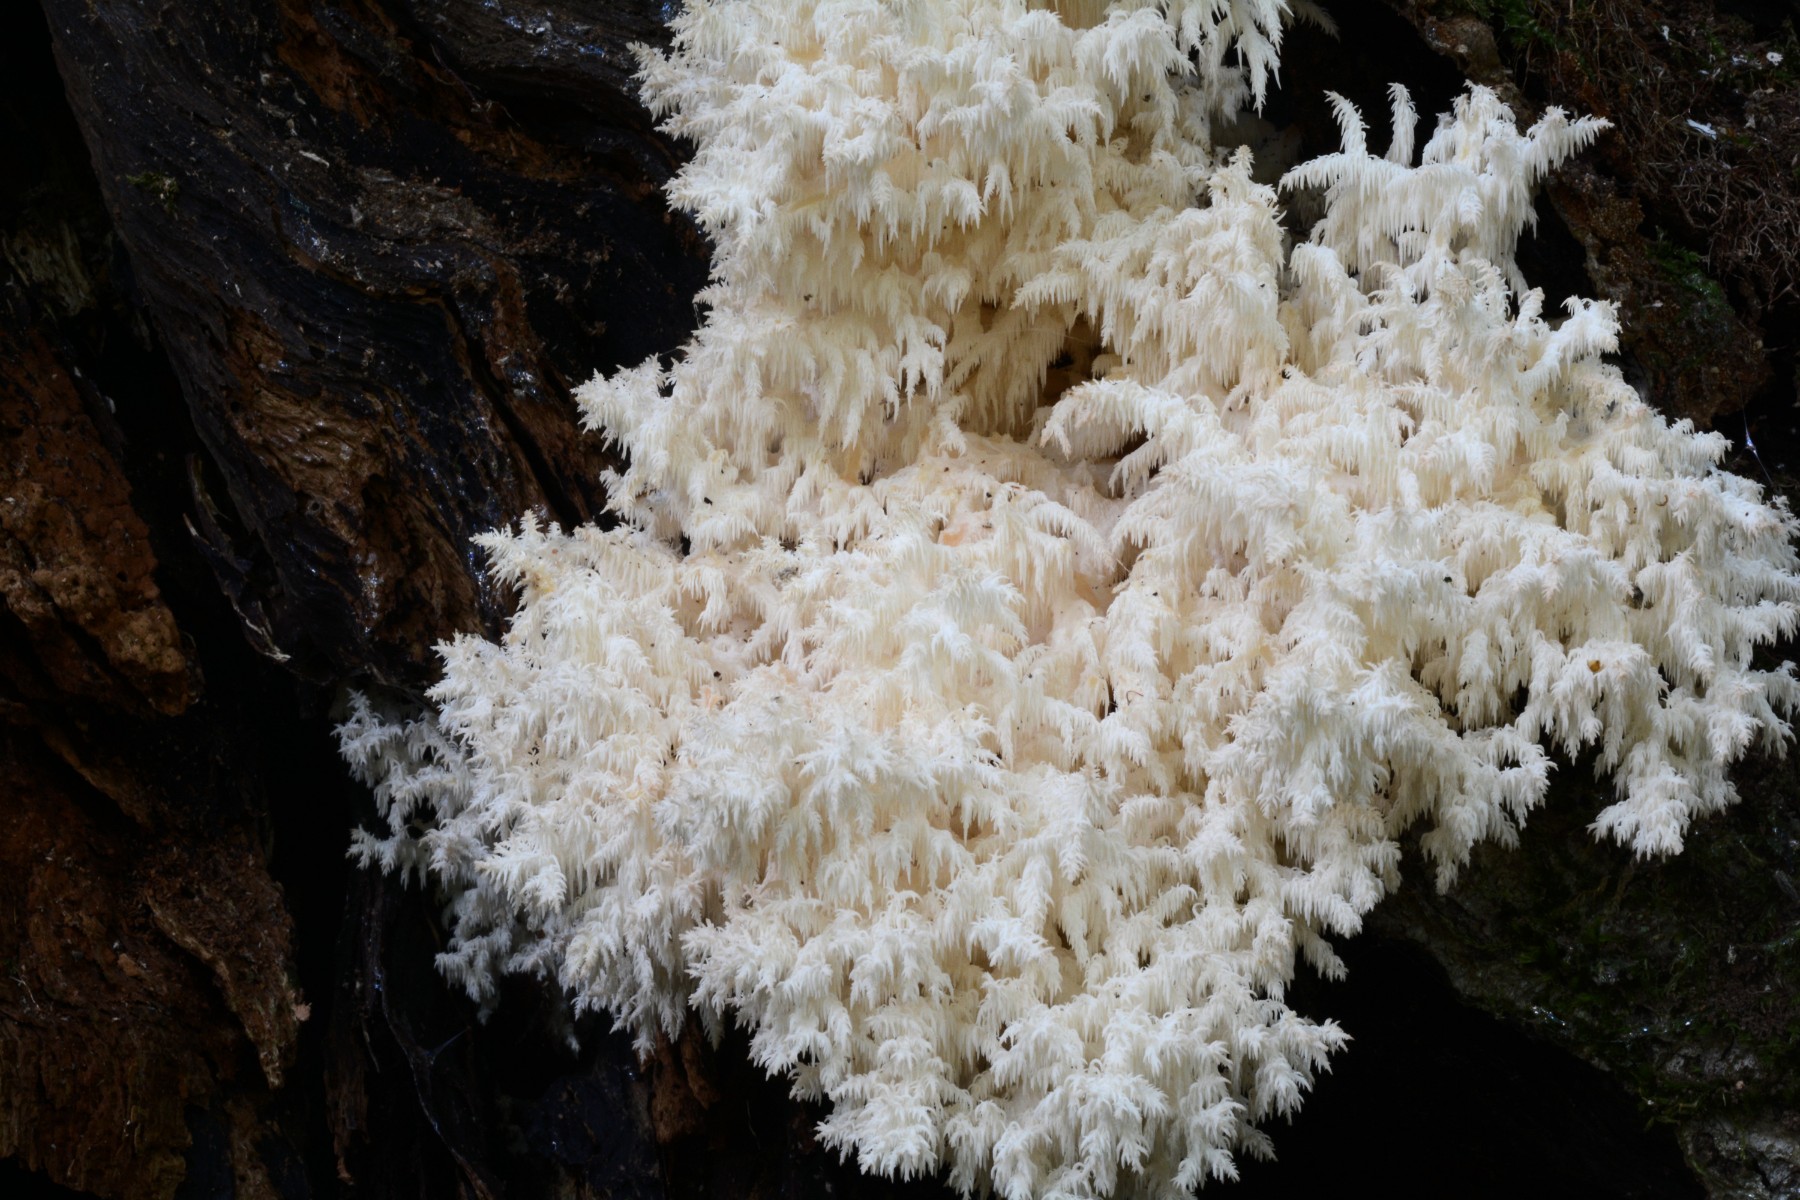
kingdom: Fungi
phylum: Basidiomycota
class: Agaricomycetes
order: Russulales
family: Hericiaceae
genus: Hericium
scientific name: Hericium coralloides
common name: koralpigsvamp
